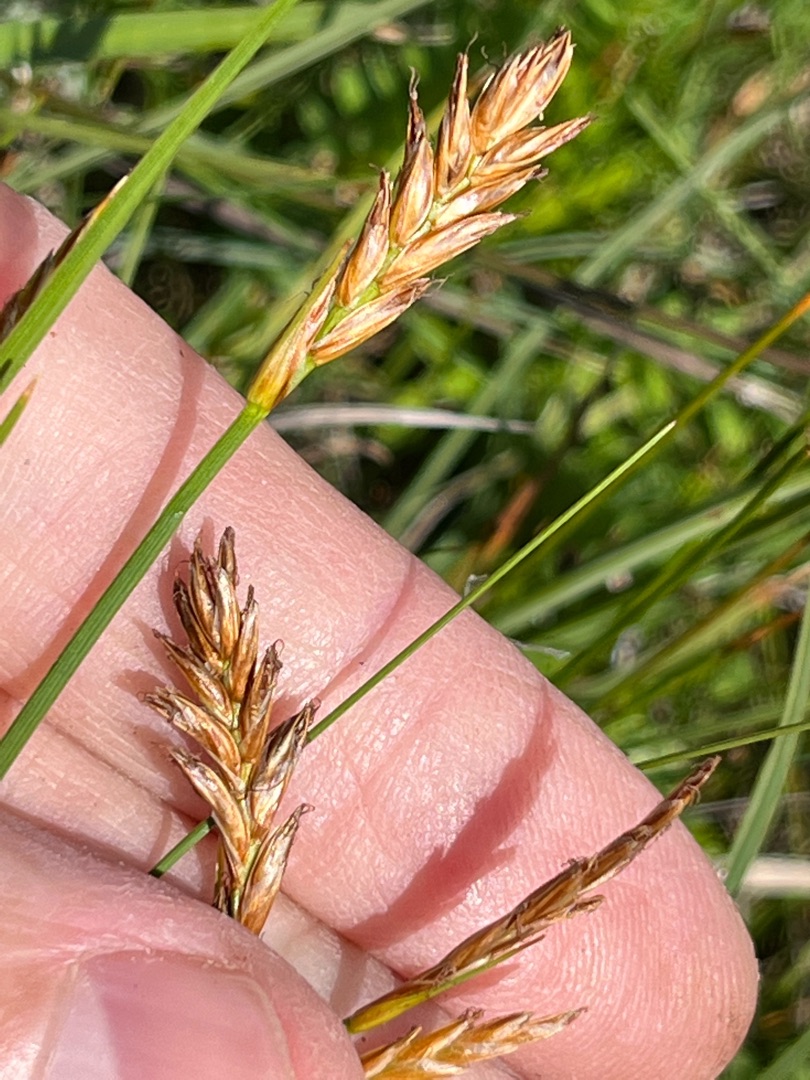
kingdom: Plantae
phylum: Tracheophyta
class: Liliopsida
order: Poales
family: Cyperaceae
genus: Blysmus
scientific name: Blysmus compressus
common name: Fladtrykt kogleaks
